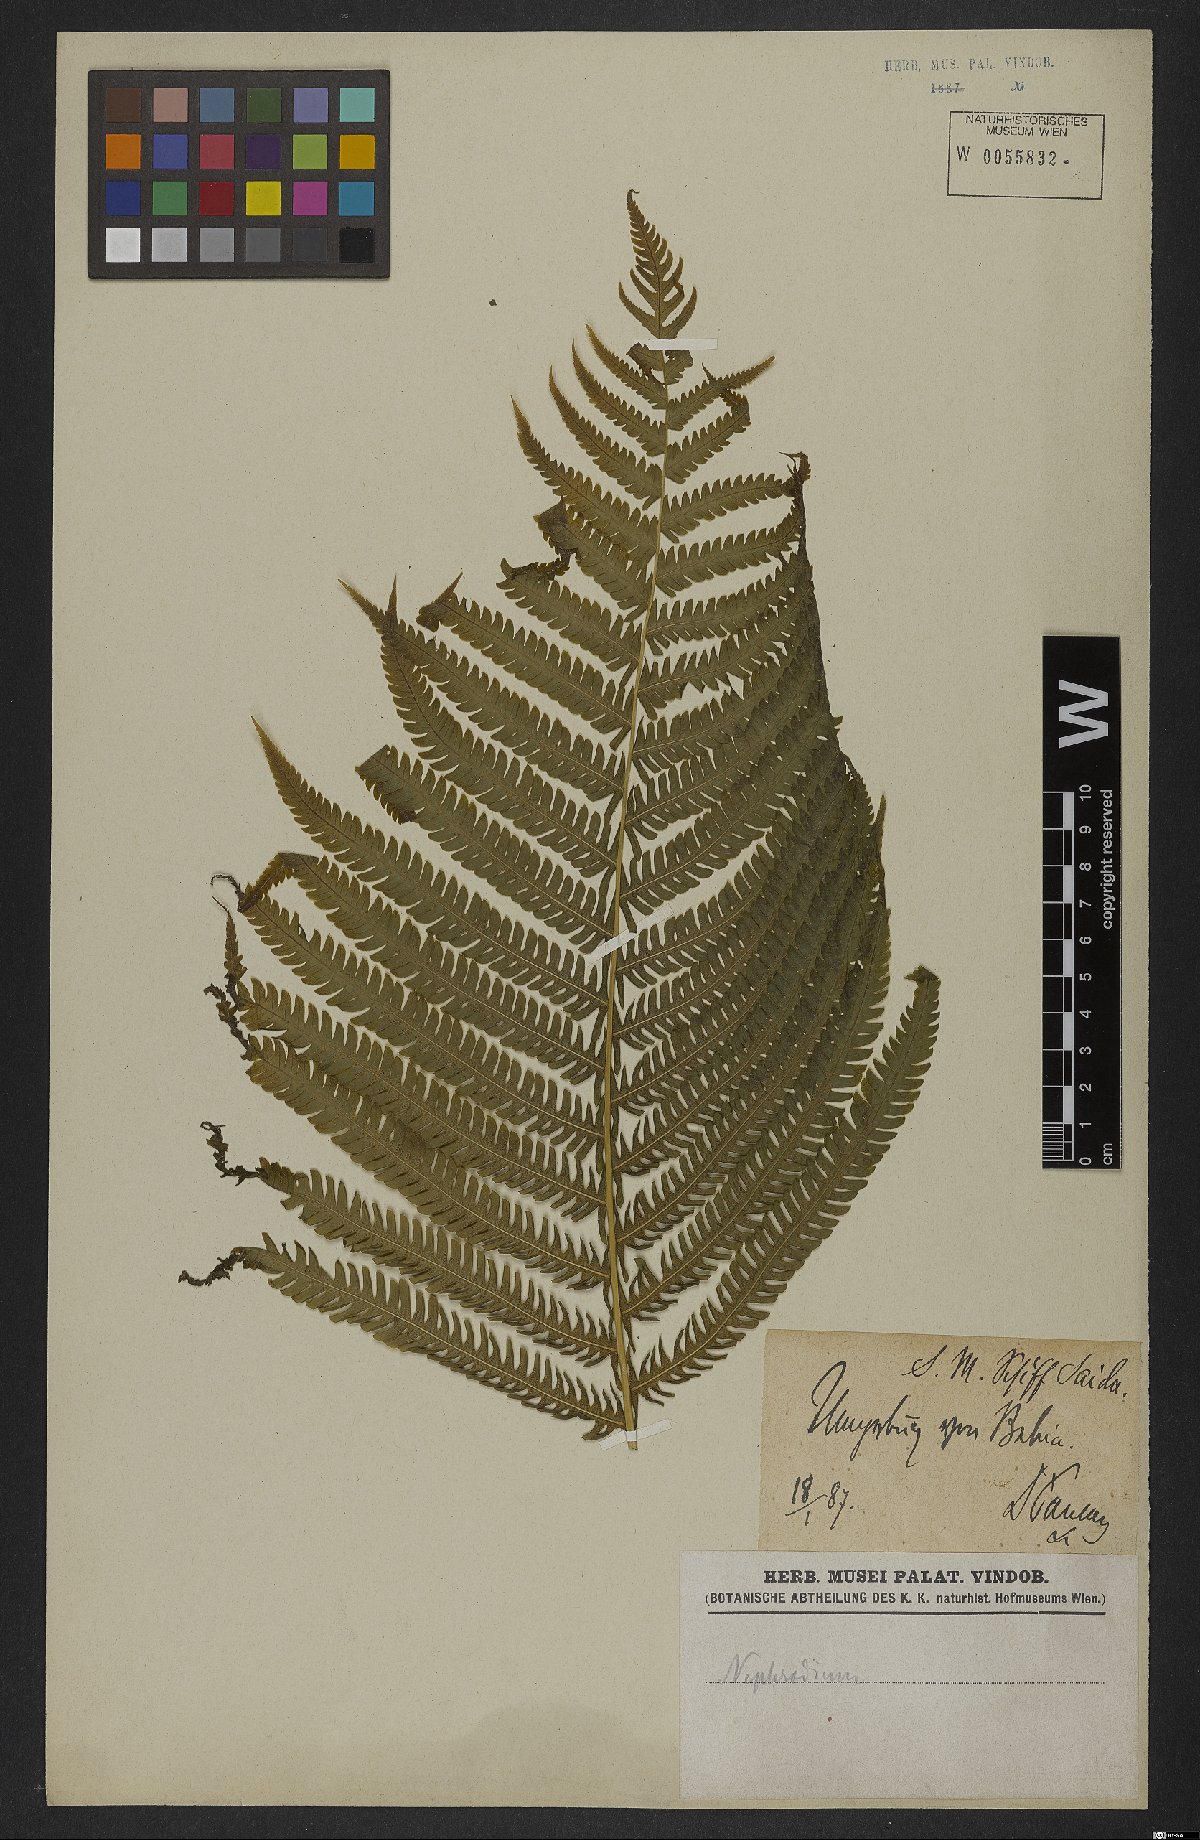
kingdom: Plantae
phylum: Tracheophyta
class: Polypodiopsida
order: Polypodiales
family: Dryopteridaceae
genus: Dryopteris
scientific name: Dryopteris
